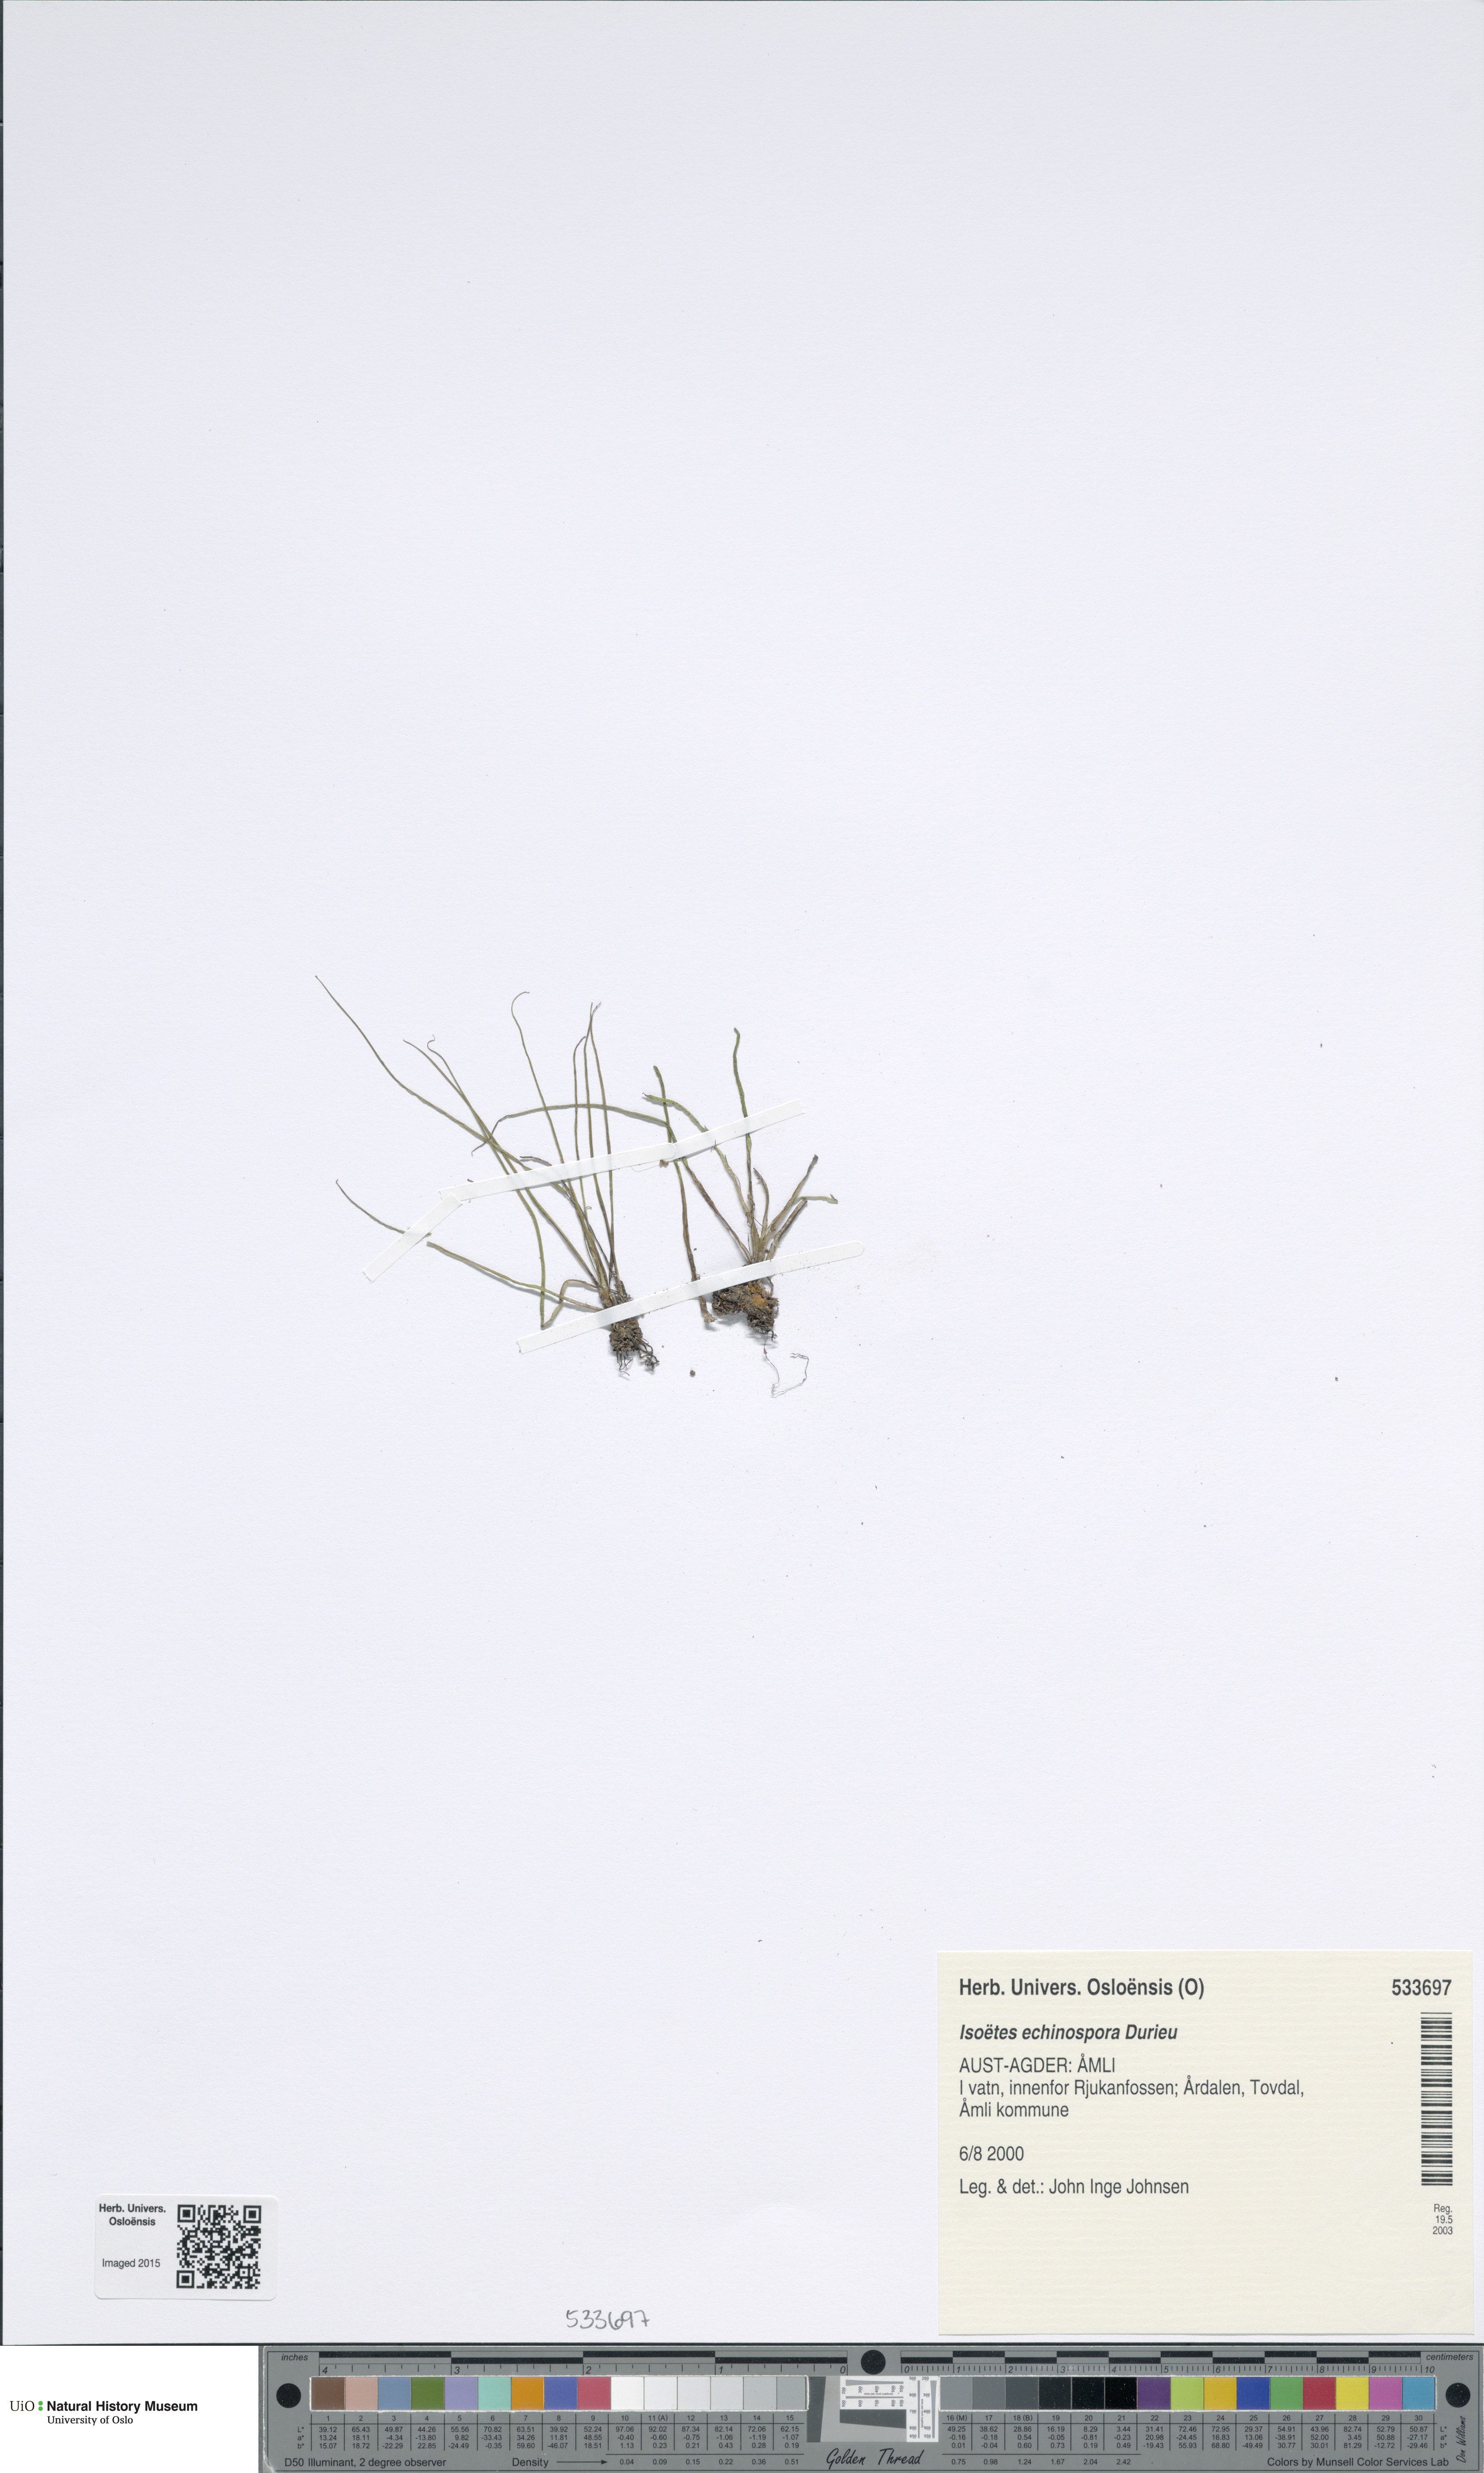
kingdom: Plantae
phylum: Tracheophyta
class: Lycopodiopsida
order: Isoetales
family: Isoetaceae
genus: Isoetes
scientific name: Isoetes echinospora
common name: Spring quillwort
